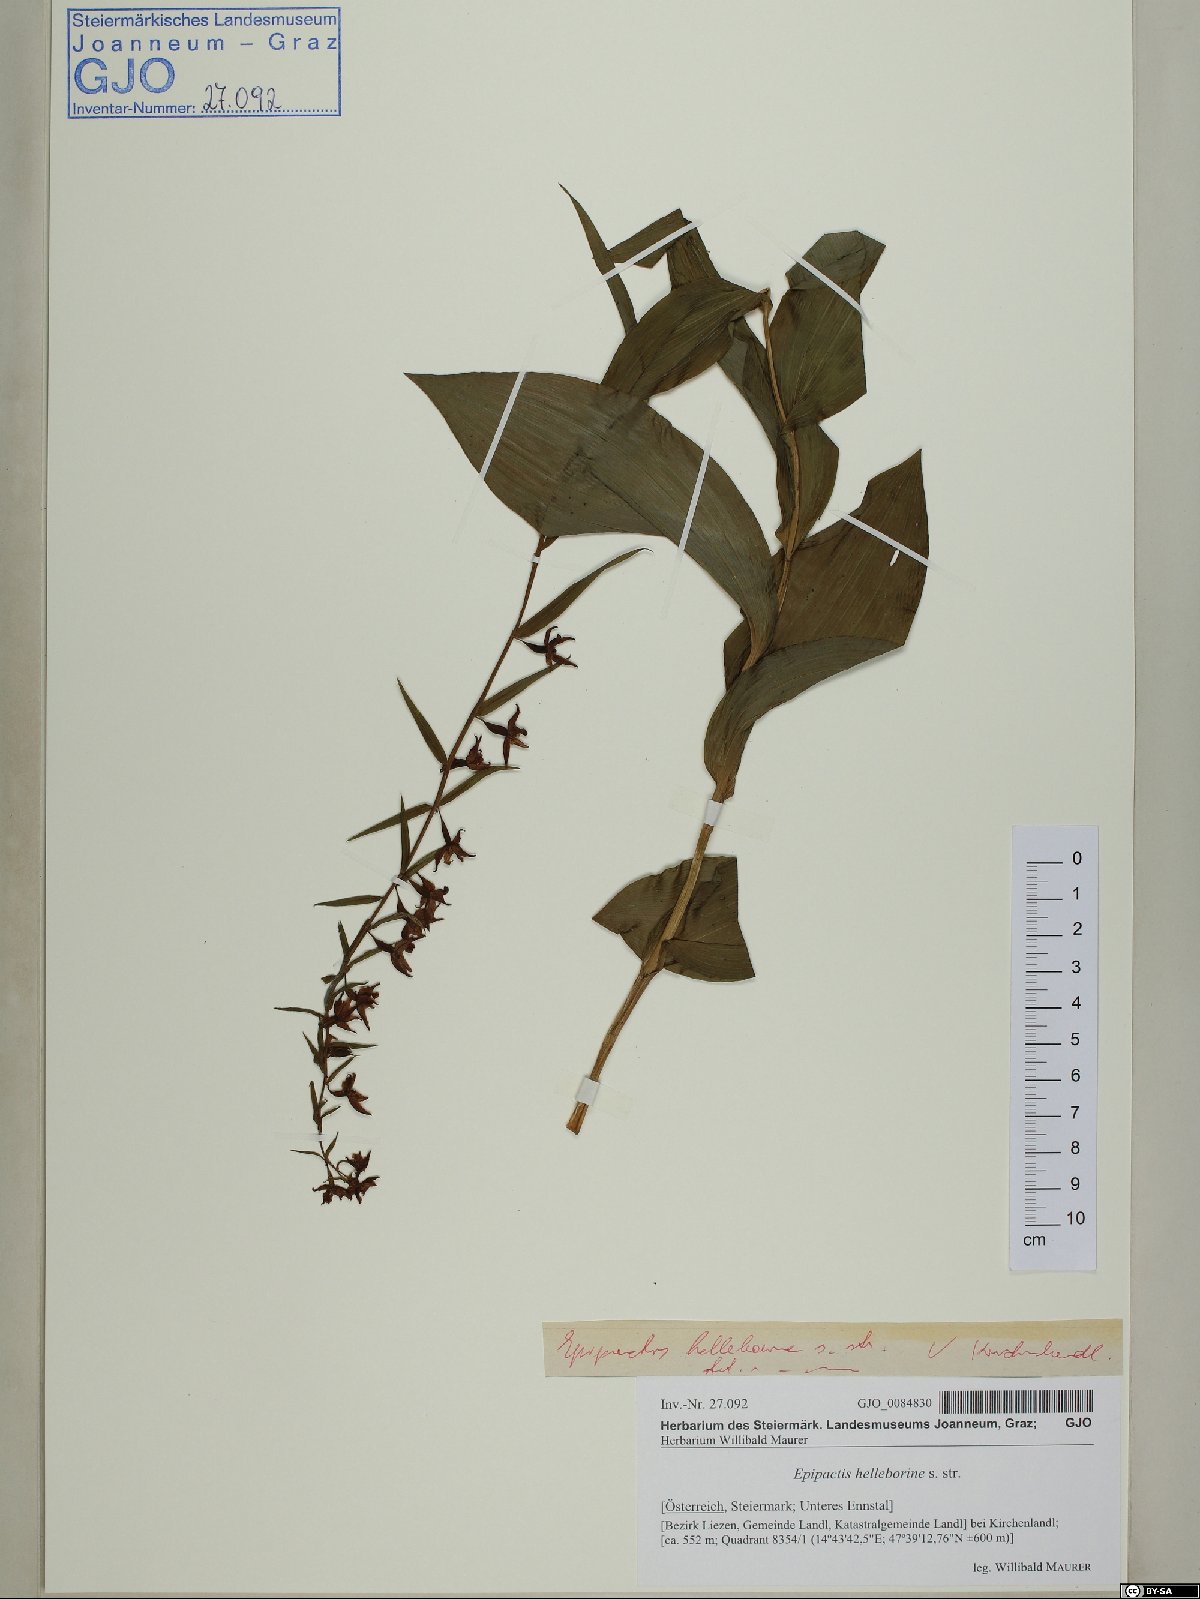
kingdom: Plantae
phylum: Tracheophyta
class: Liliopsida
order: Asparagales
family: Orchidaceae
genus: Epipactis
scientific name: Epipactis helleborine
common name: Broad-leaved helleborine
